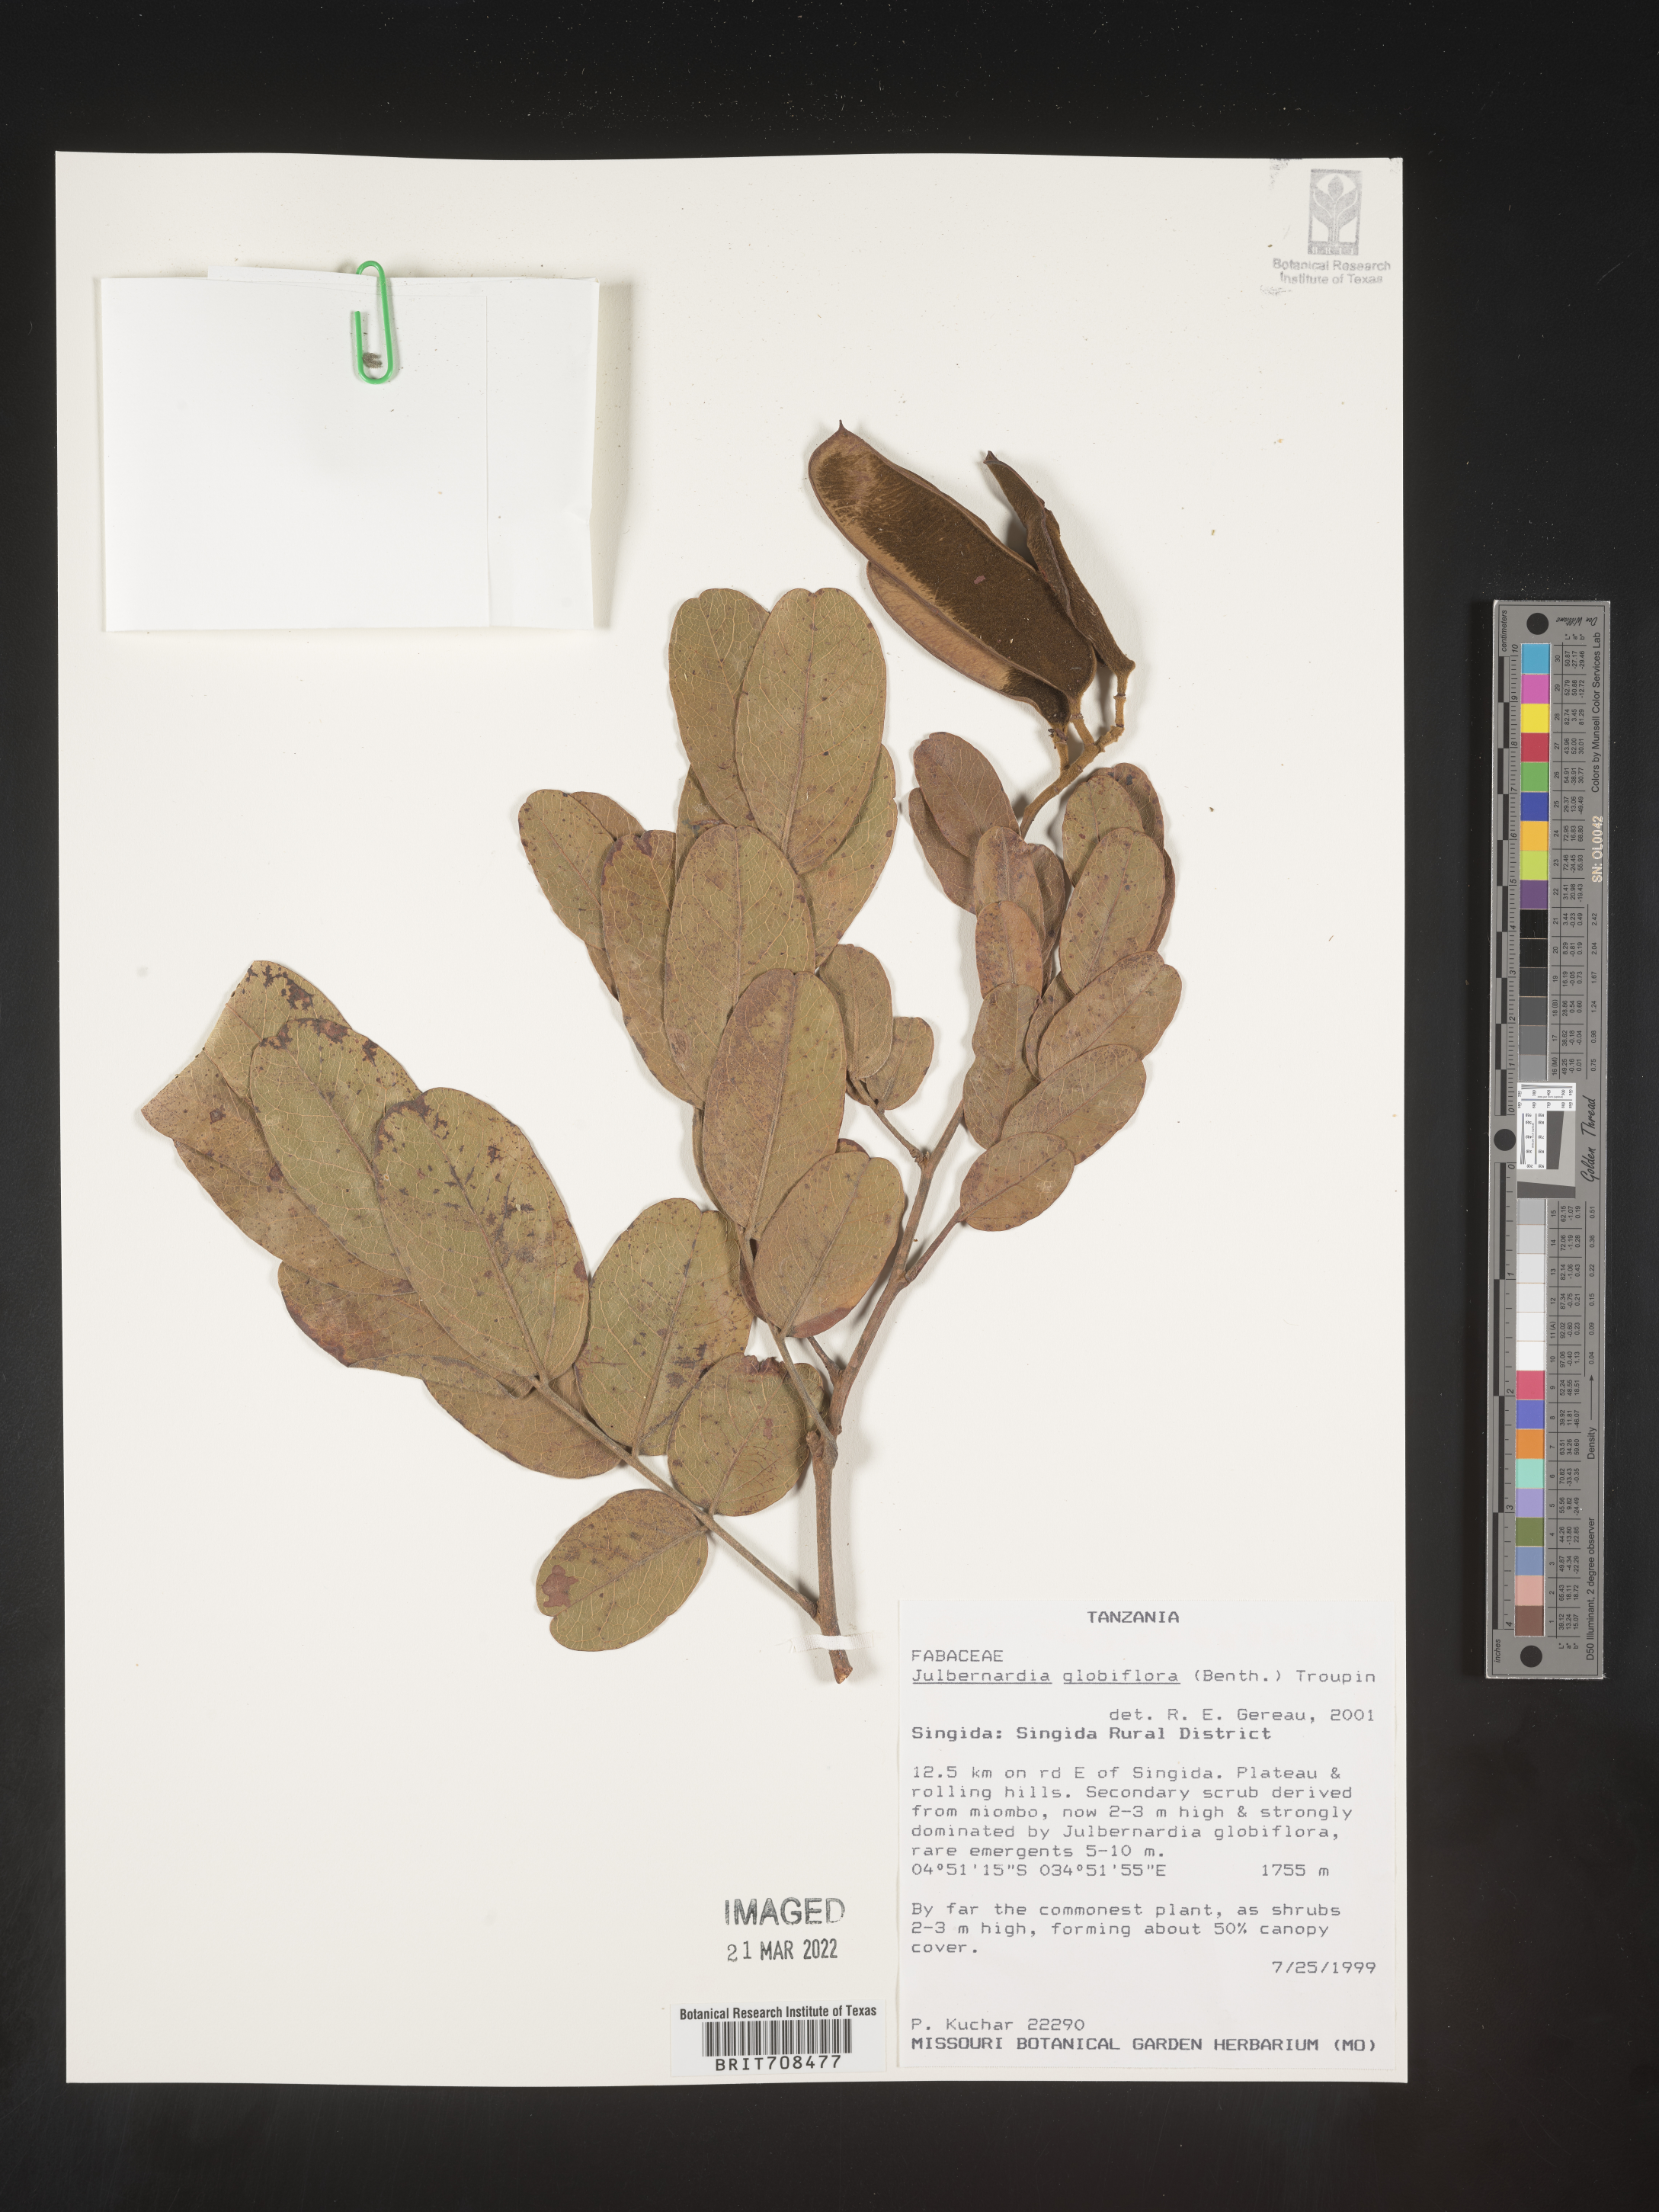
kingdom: Plantae
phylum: Tracheophyta
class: Magnoliopsida
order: Fabales
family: Fabaceae
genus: Julbernardia
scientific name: Julbernardia
